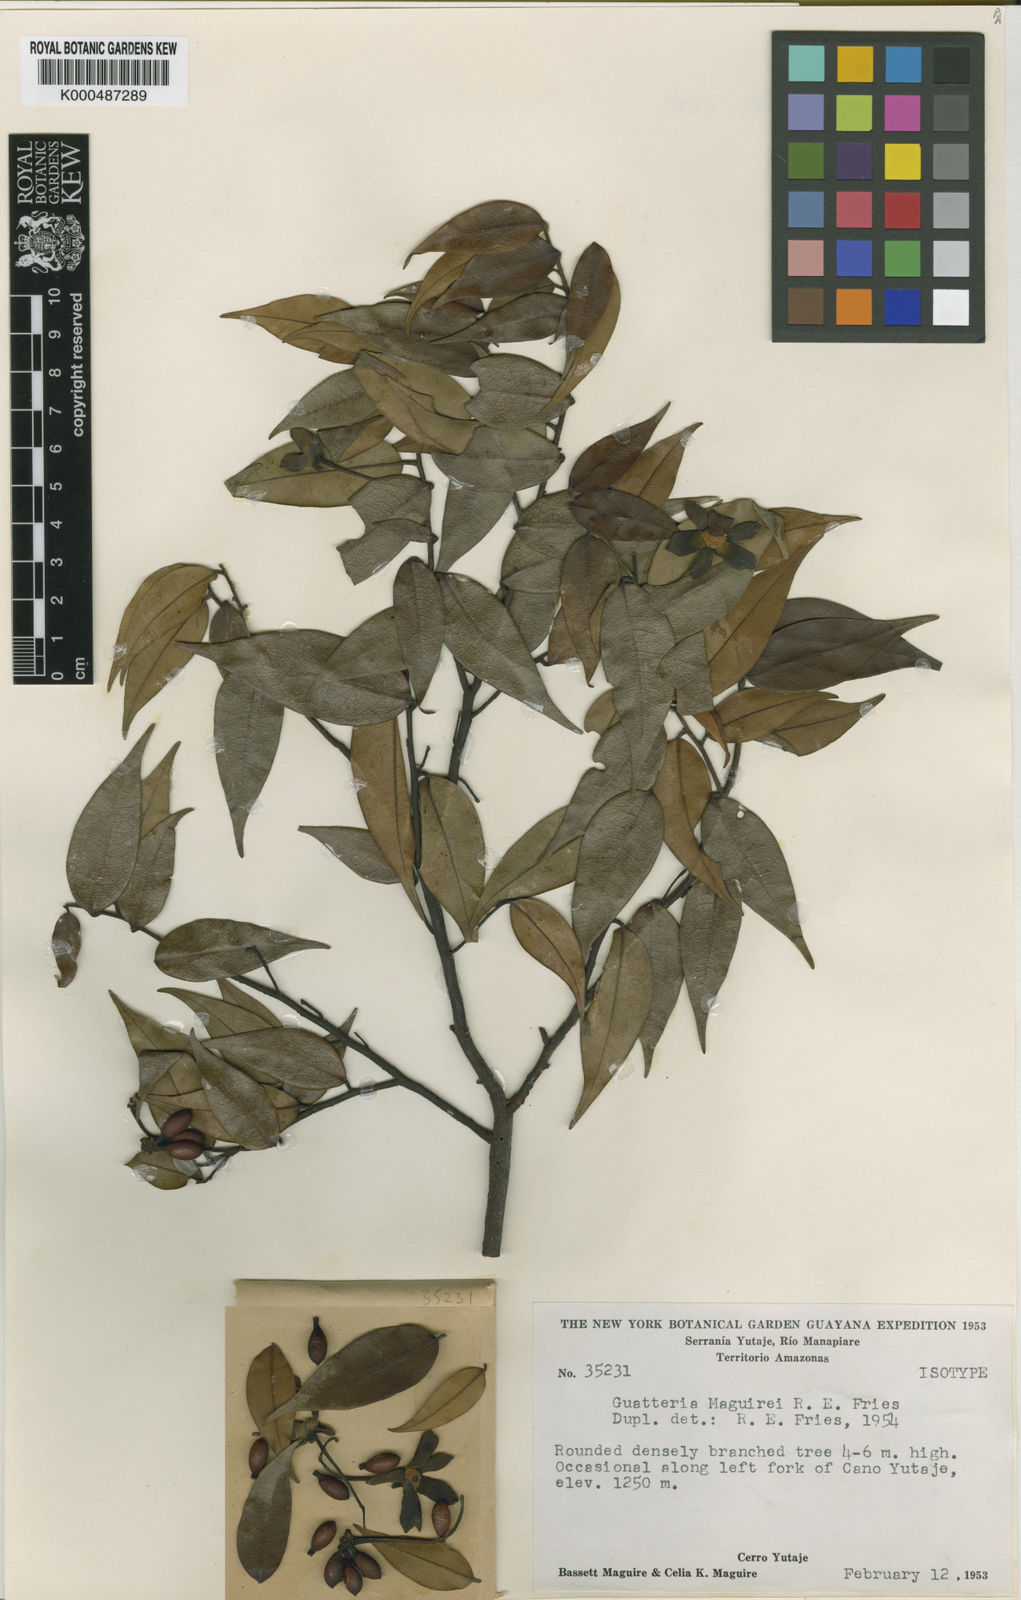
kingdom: Plantae
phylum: Tracheophyta
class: Magnoliopsida
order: Magnoliales
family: Annonaceae
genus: Guatteria
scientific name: Guatteria maguirei
